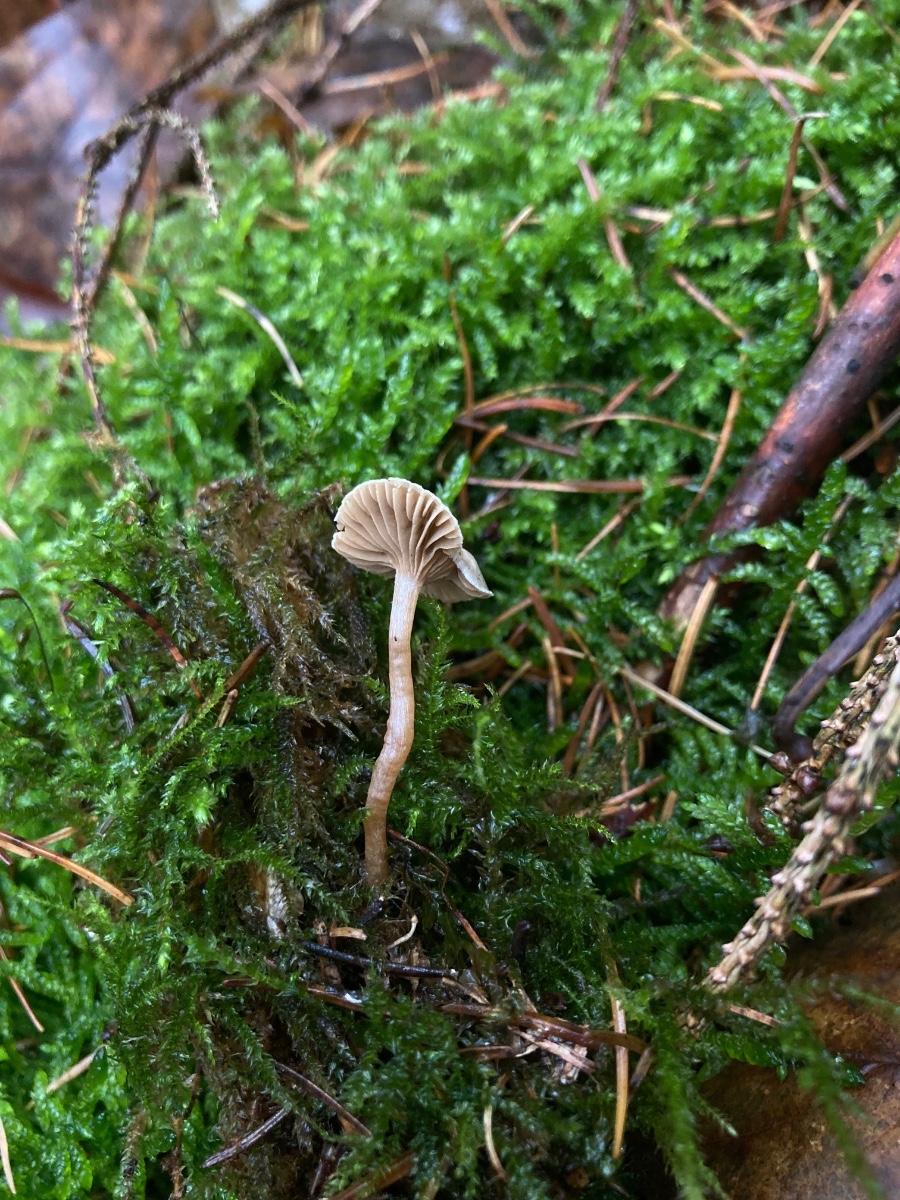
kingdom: Fungi
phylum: Basidiomycota
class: Agaricomycetes
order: Agaricales
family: Tricholomataceae
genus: Ripartites
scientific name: Ripartites tricholoma
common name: almindelig skæghat
